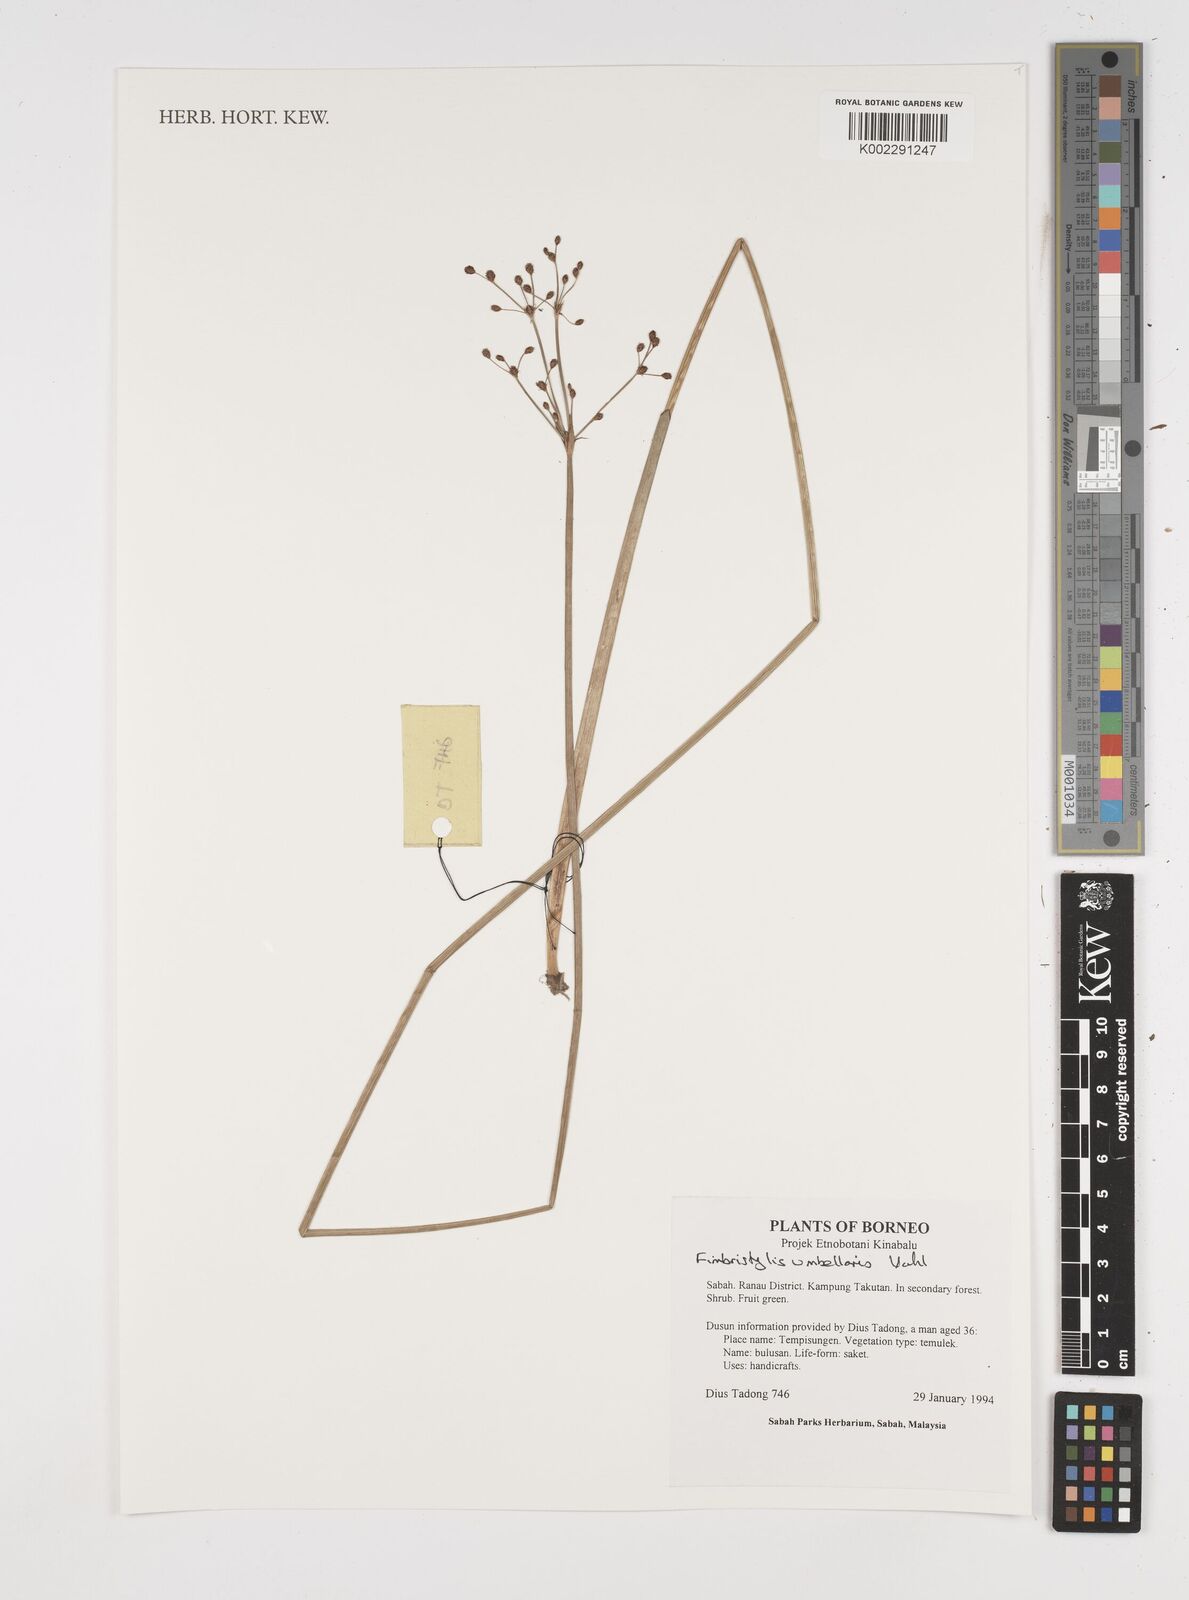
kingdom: Plantae
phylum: Tracheophyta
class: Liliopsida
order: Poales
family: Cyperaceae
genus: Fimbristylis
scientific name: Fimbristylis umbellaris
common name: Globular fimbristylis
